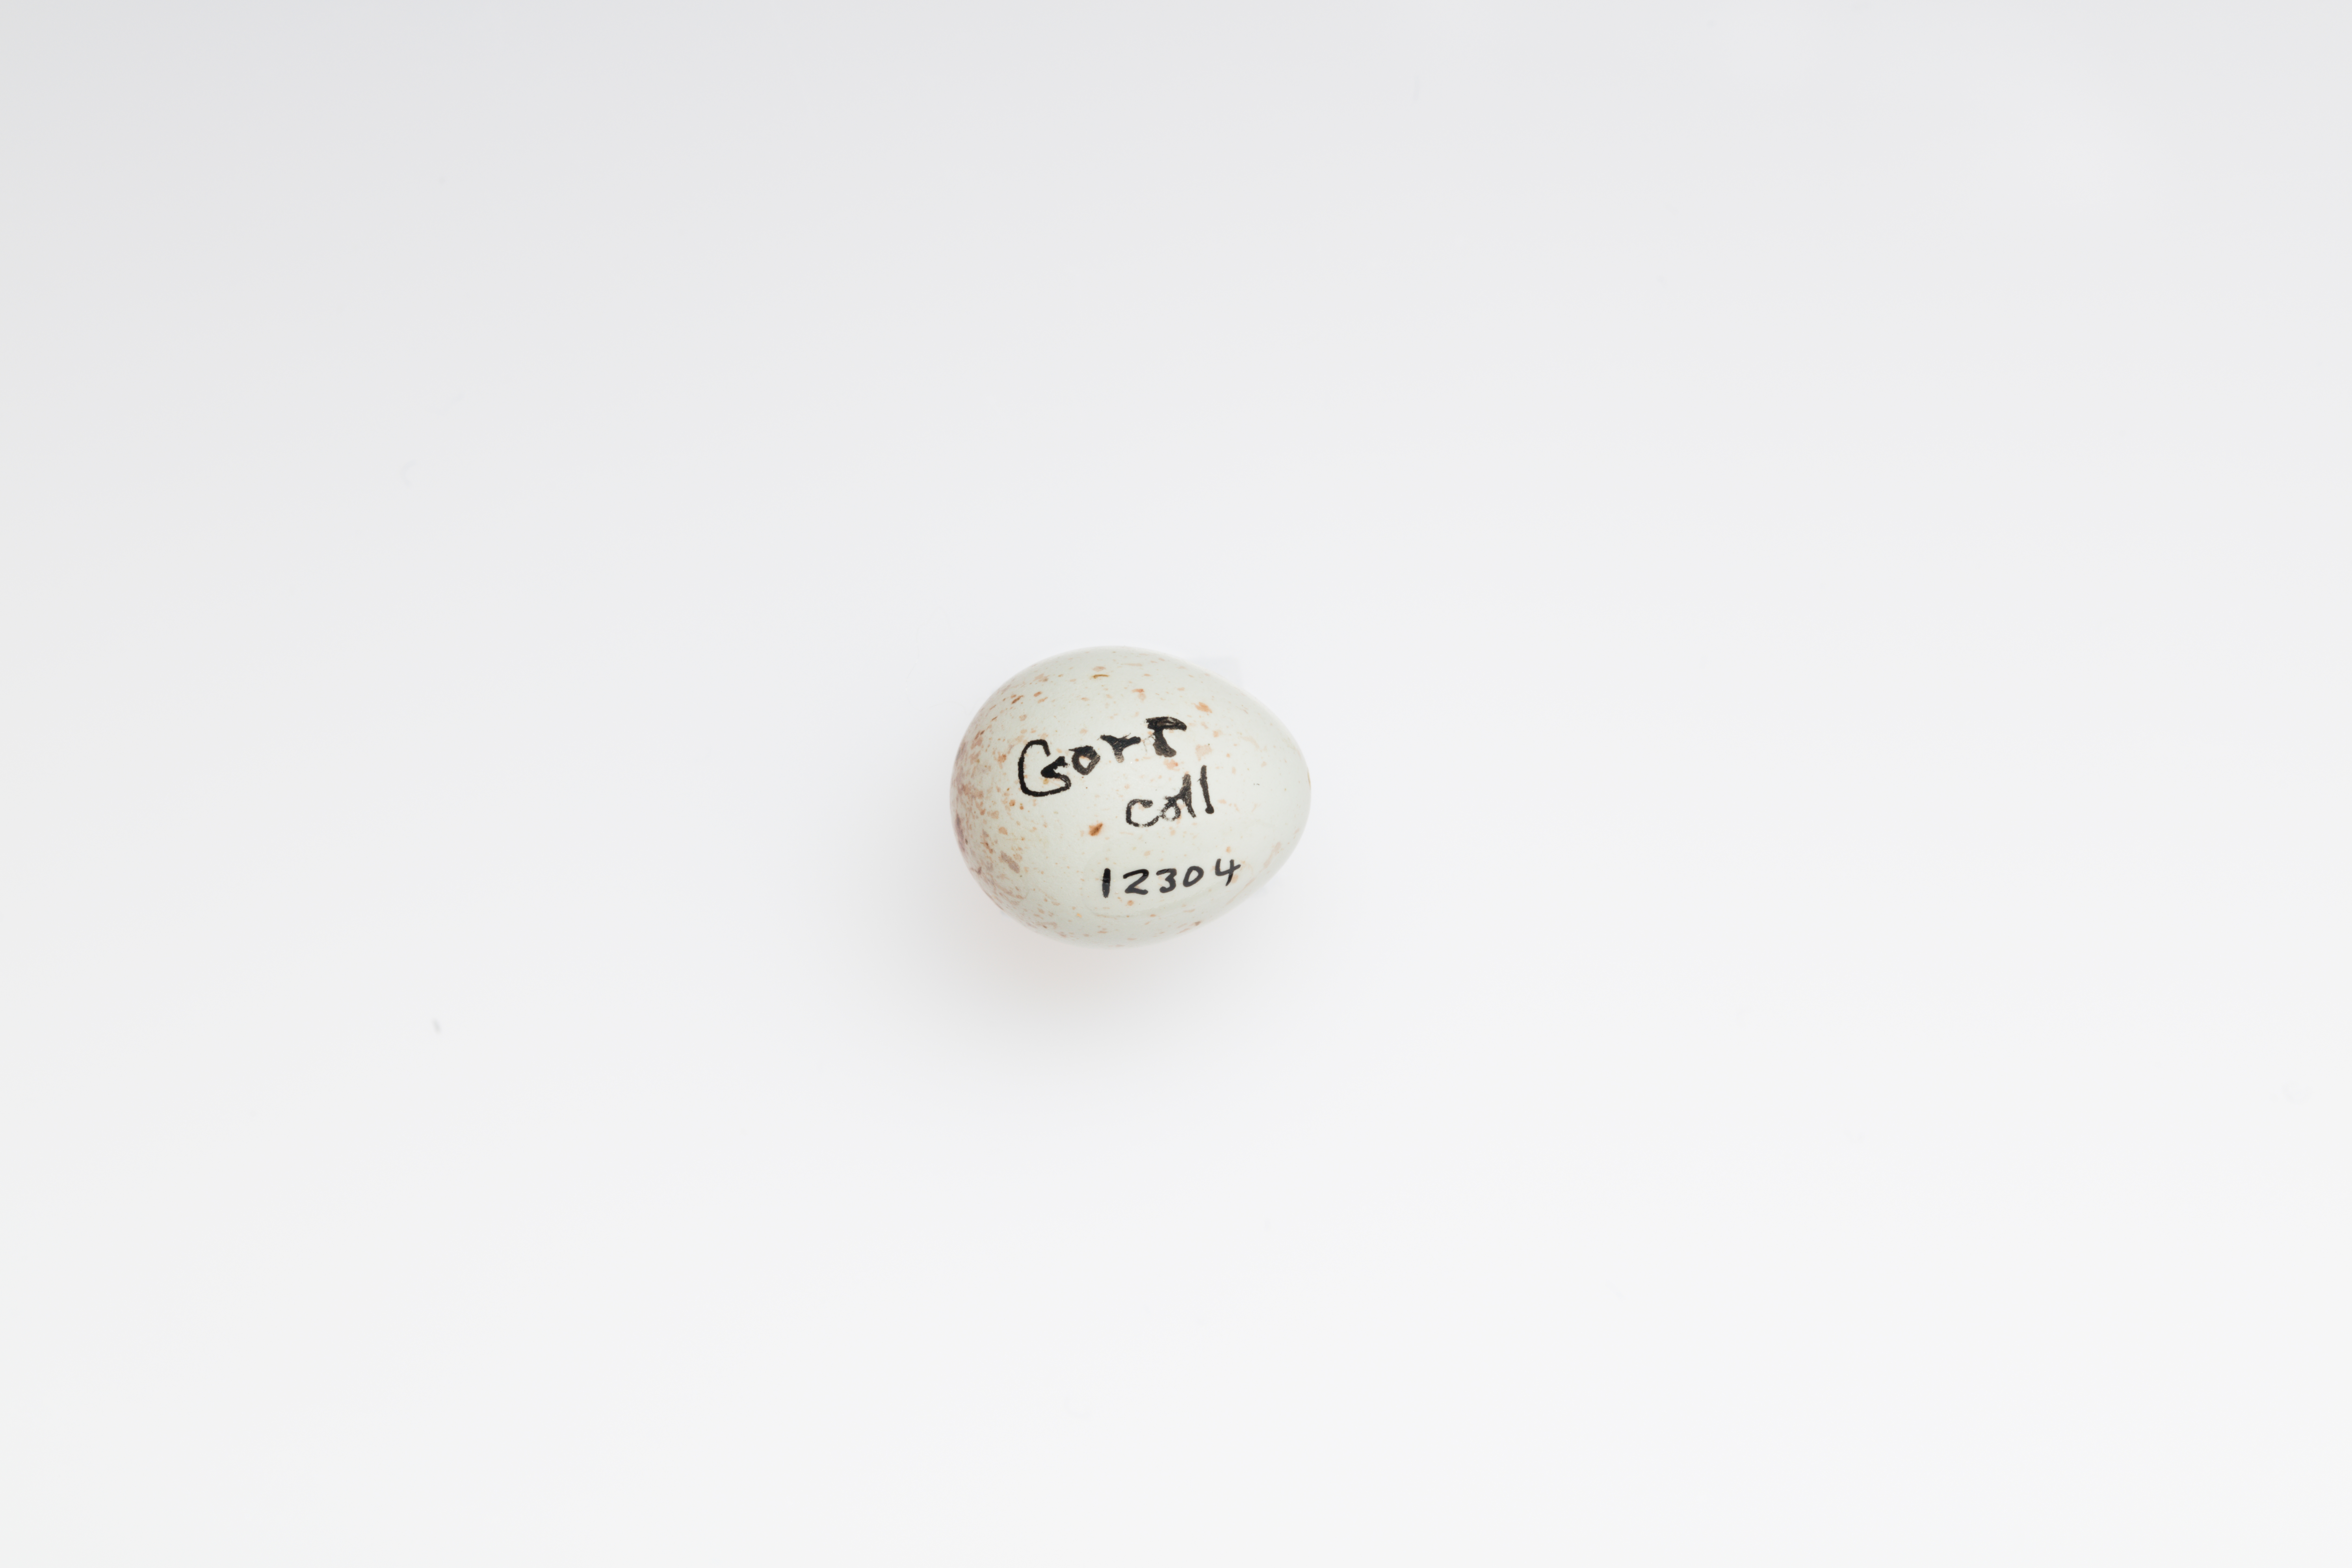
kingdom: Animalia
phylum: Chordata
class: Aves
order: Passeriformes
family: Fringillidae
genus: Acanthis
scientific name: Acanthis flammea
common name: Common redpoll
